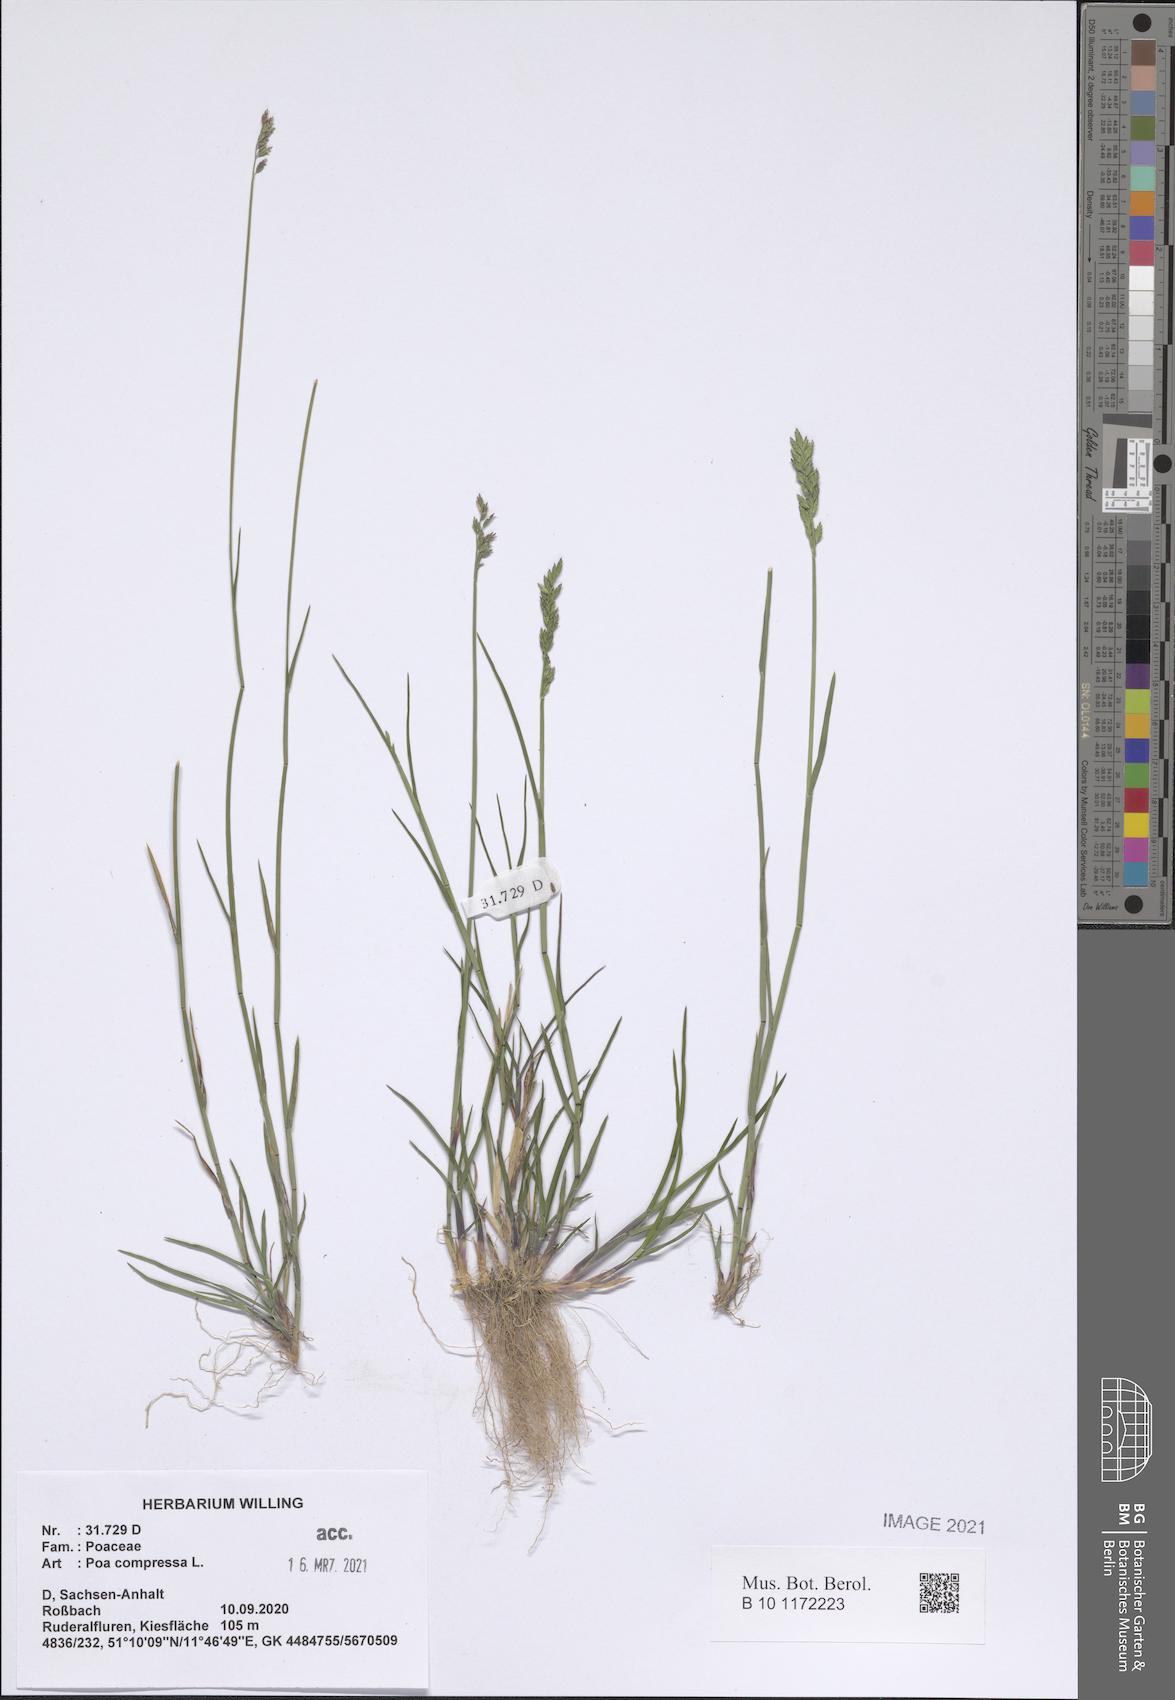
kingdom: Plantae
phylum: Tracheophyta
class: Liliopsida
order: Poales
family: Poaceae
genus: Poa
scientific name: Poa compressa
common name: Canada bluegrass
